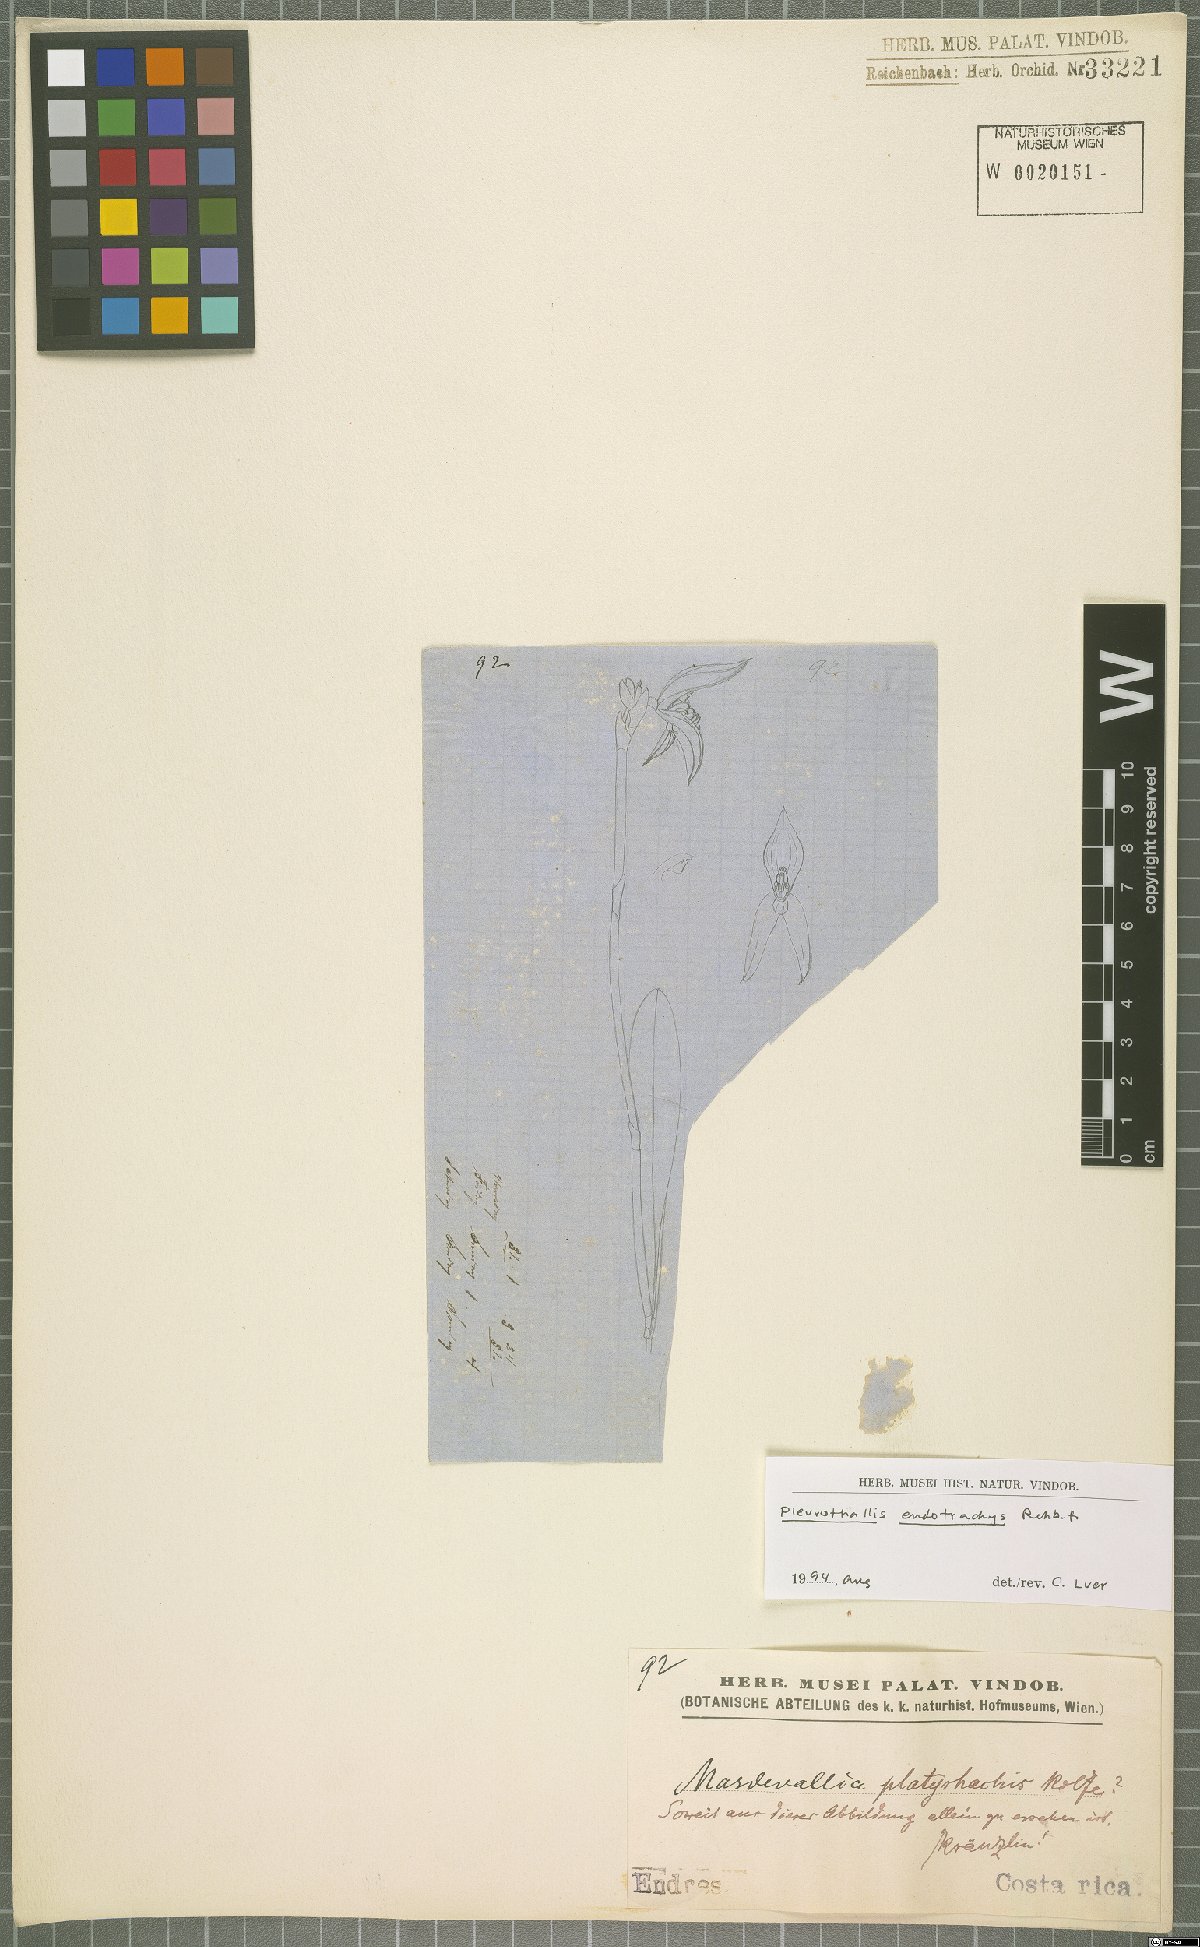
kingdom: Plantae
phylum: Tracheophyta
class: Liliopsida
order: Asparagales
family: Orchidaceae
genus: Specklinia
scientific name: Specklinia endotrachys
